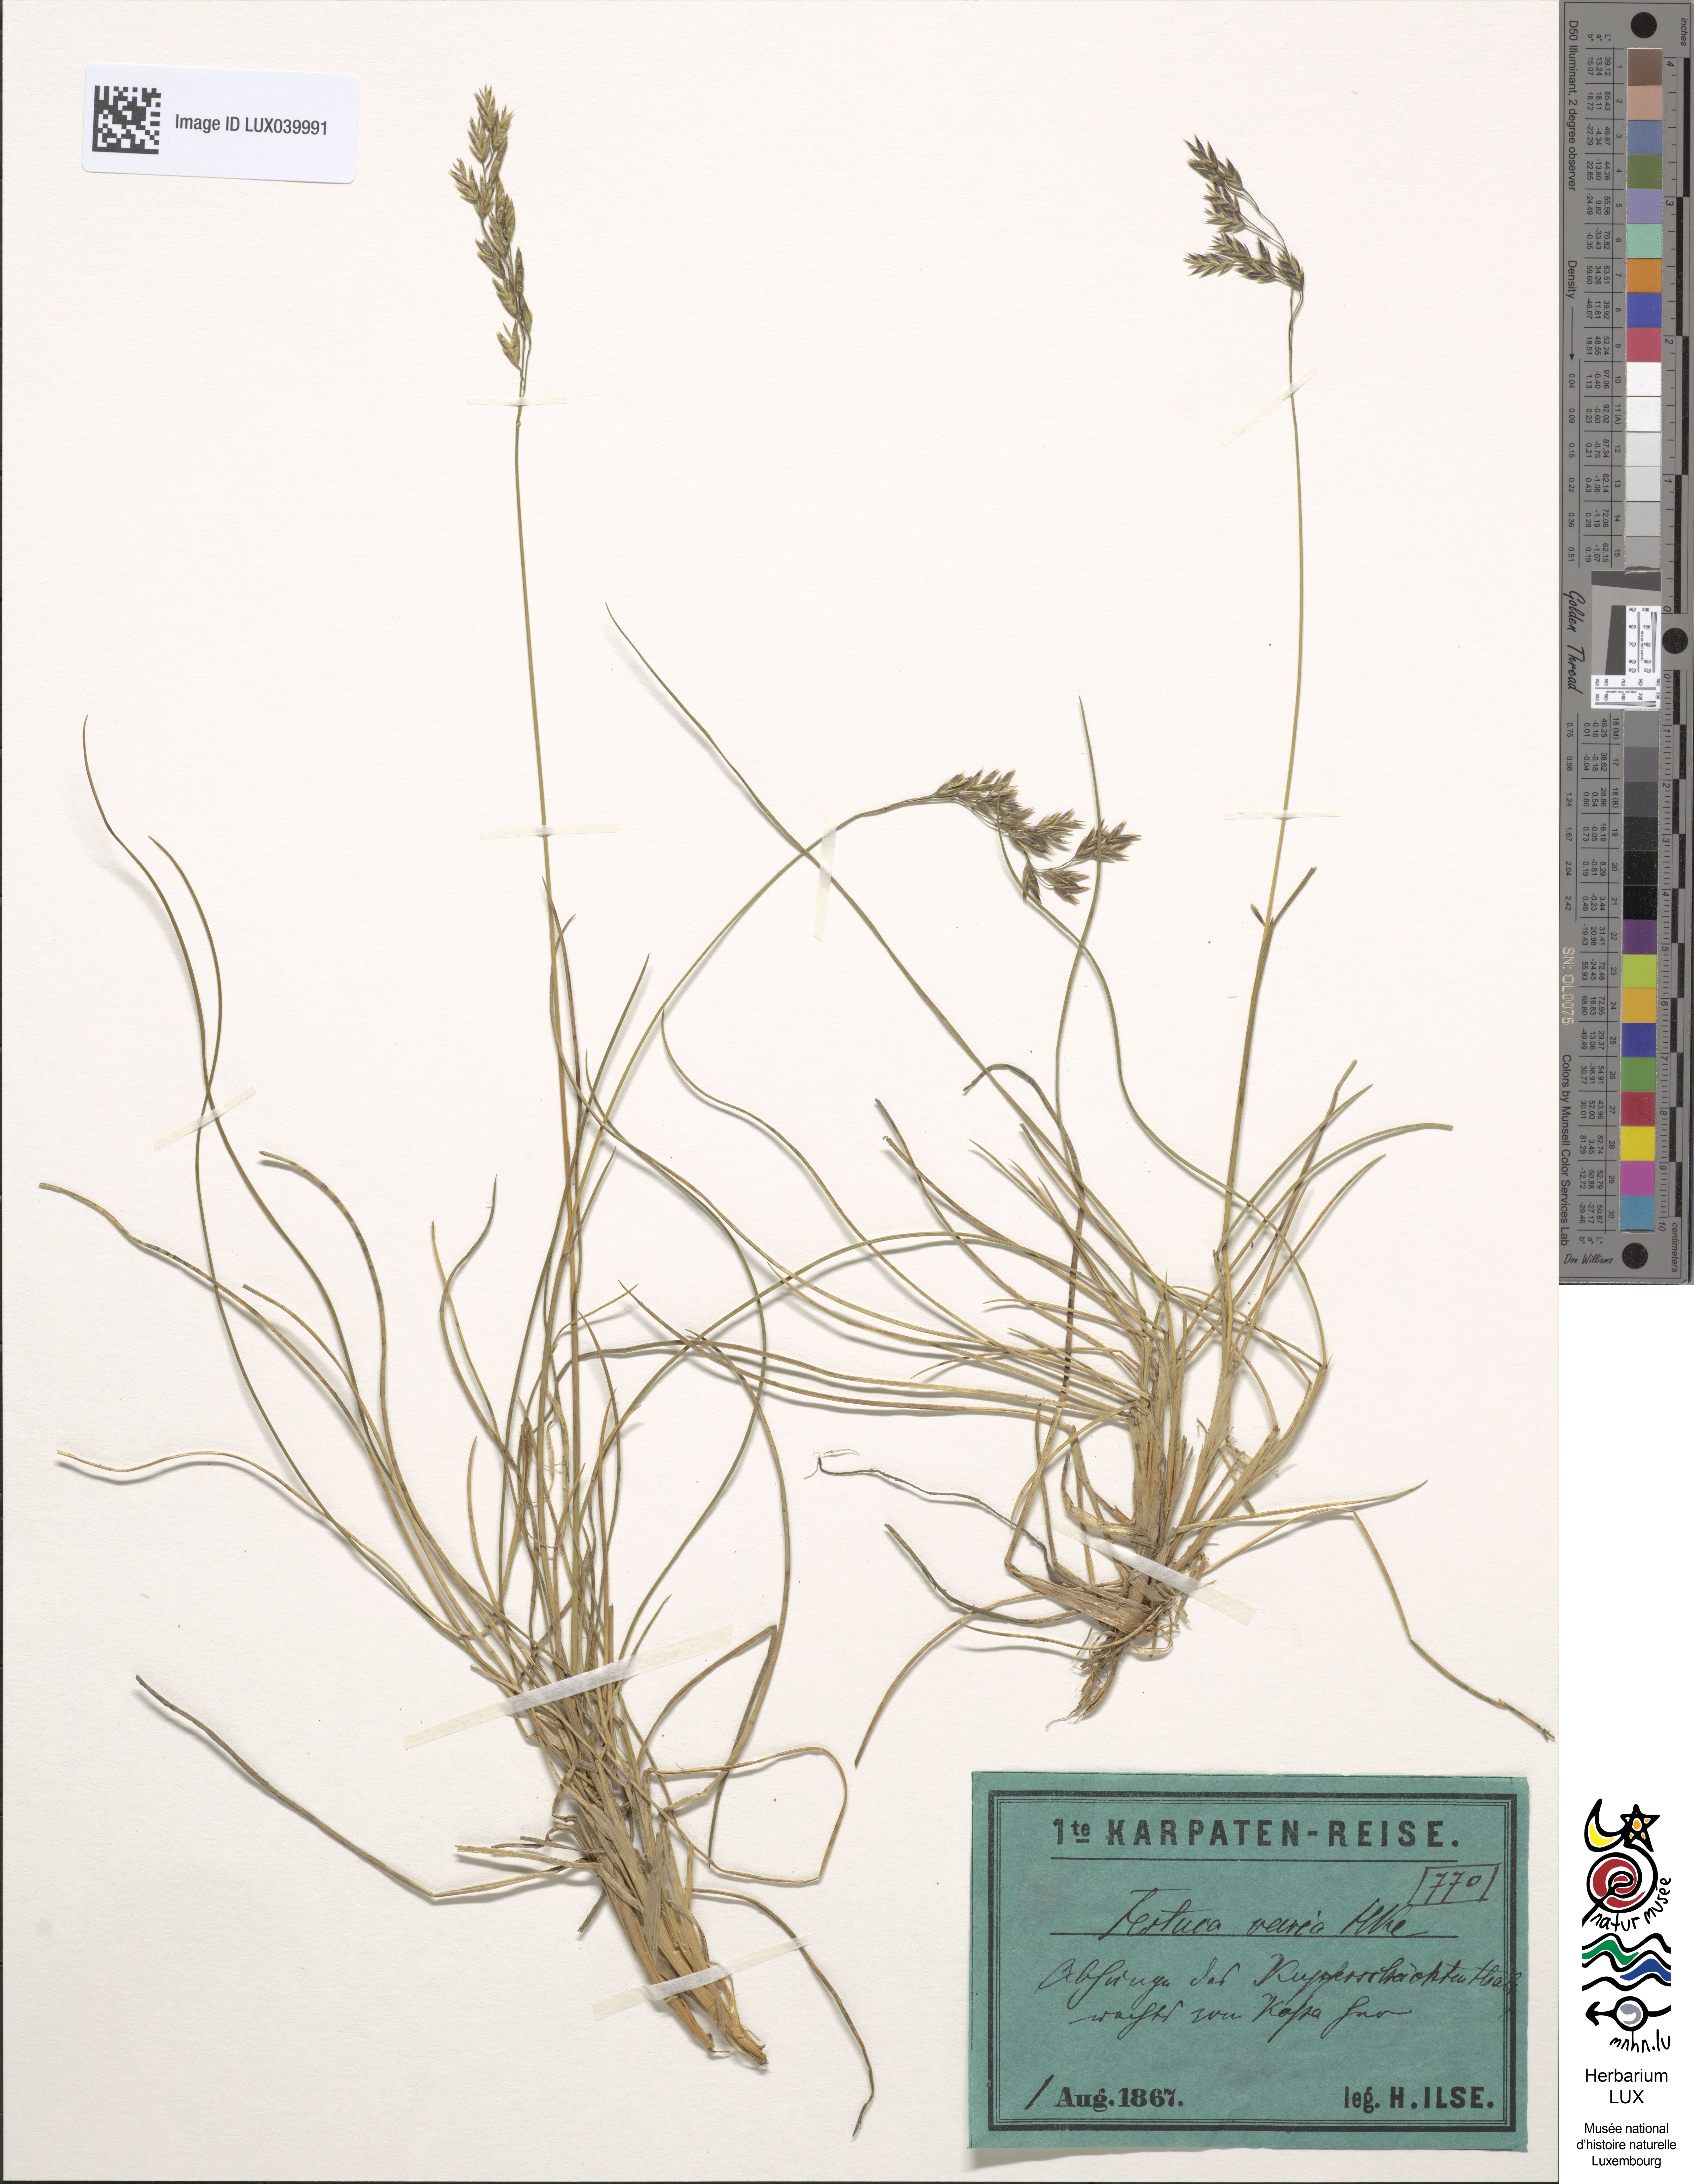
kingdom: Plantae
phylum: Tracheophyta
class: Liliopsida
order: Poales
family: Poaceae
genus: Festuca
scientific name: Festuca varia
